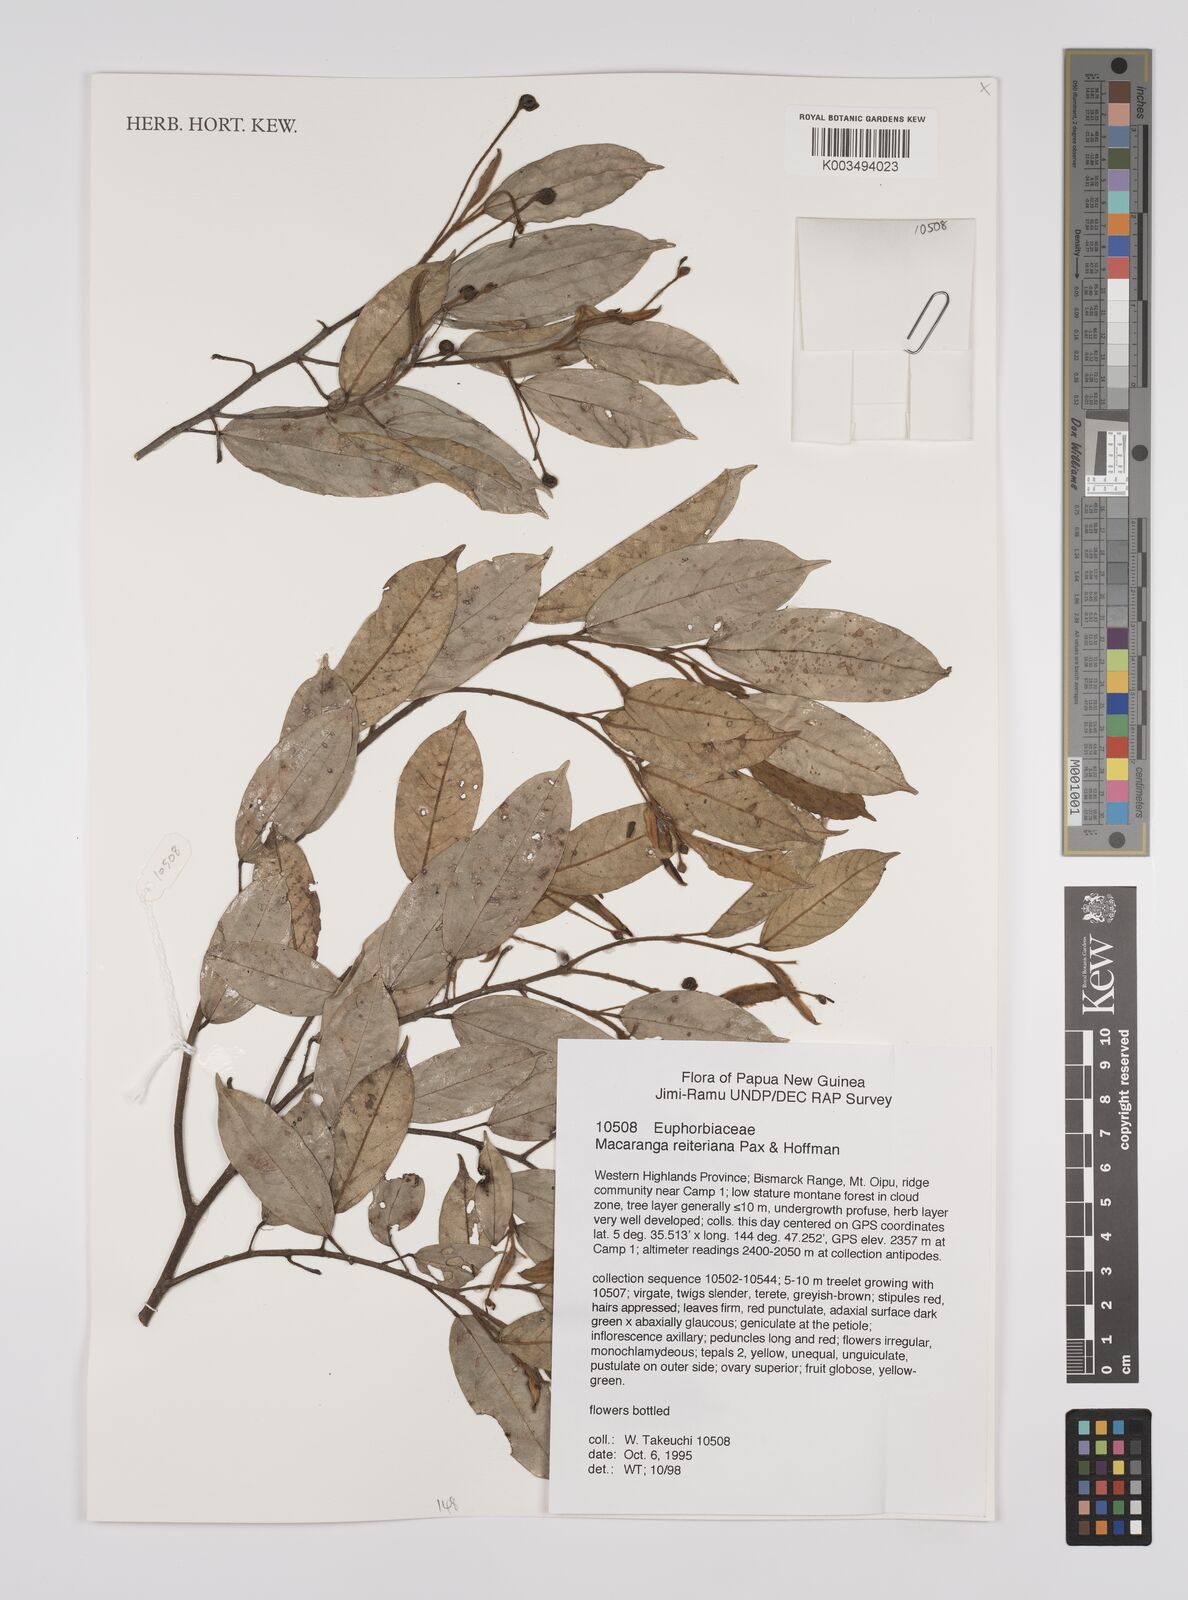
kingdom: Plantae
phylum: Tracheophyta
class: Magnoliopsida
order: Malpighiales
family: Euphorbiaceae
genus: Macaranga
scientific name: Macaranga reiteriana
